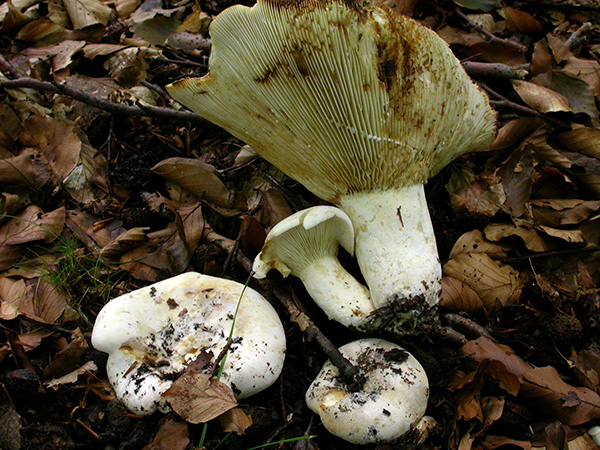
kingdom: Fungi
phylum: Basidiomycota
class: Agaricomycetes
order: Russulales
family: Russulaceae
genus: Lactifluus
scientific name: Lactifluus vellereus
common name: hvidfiltet mælkehat
